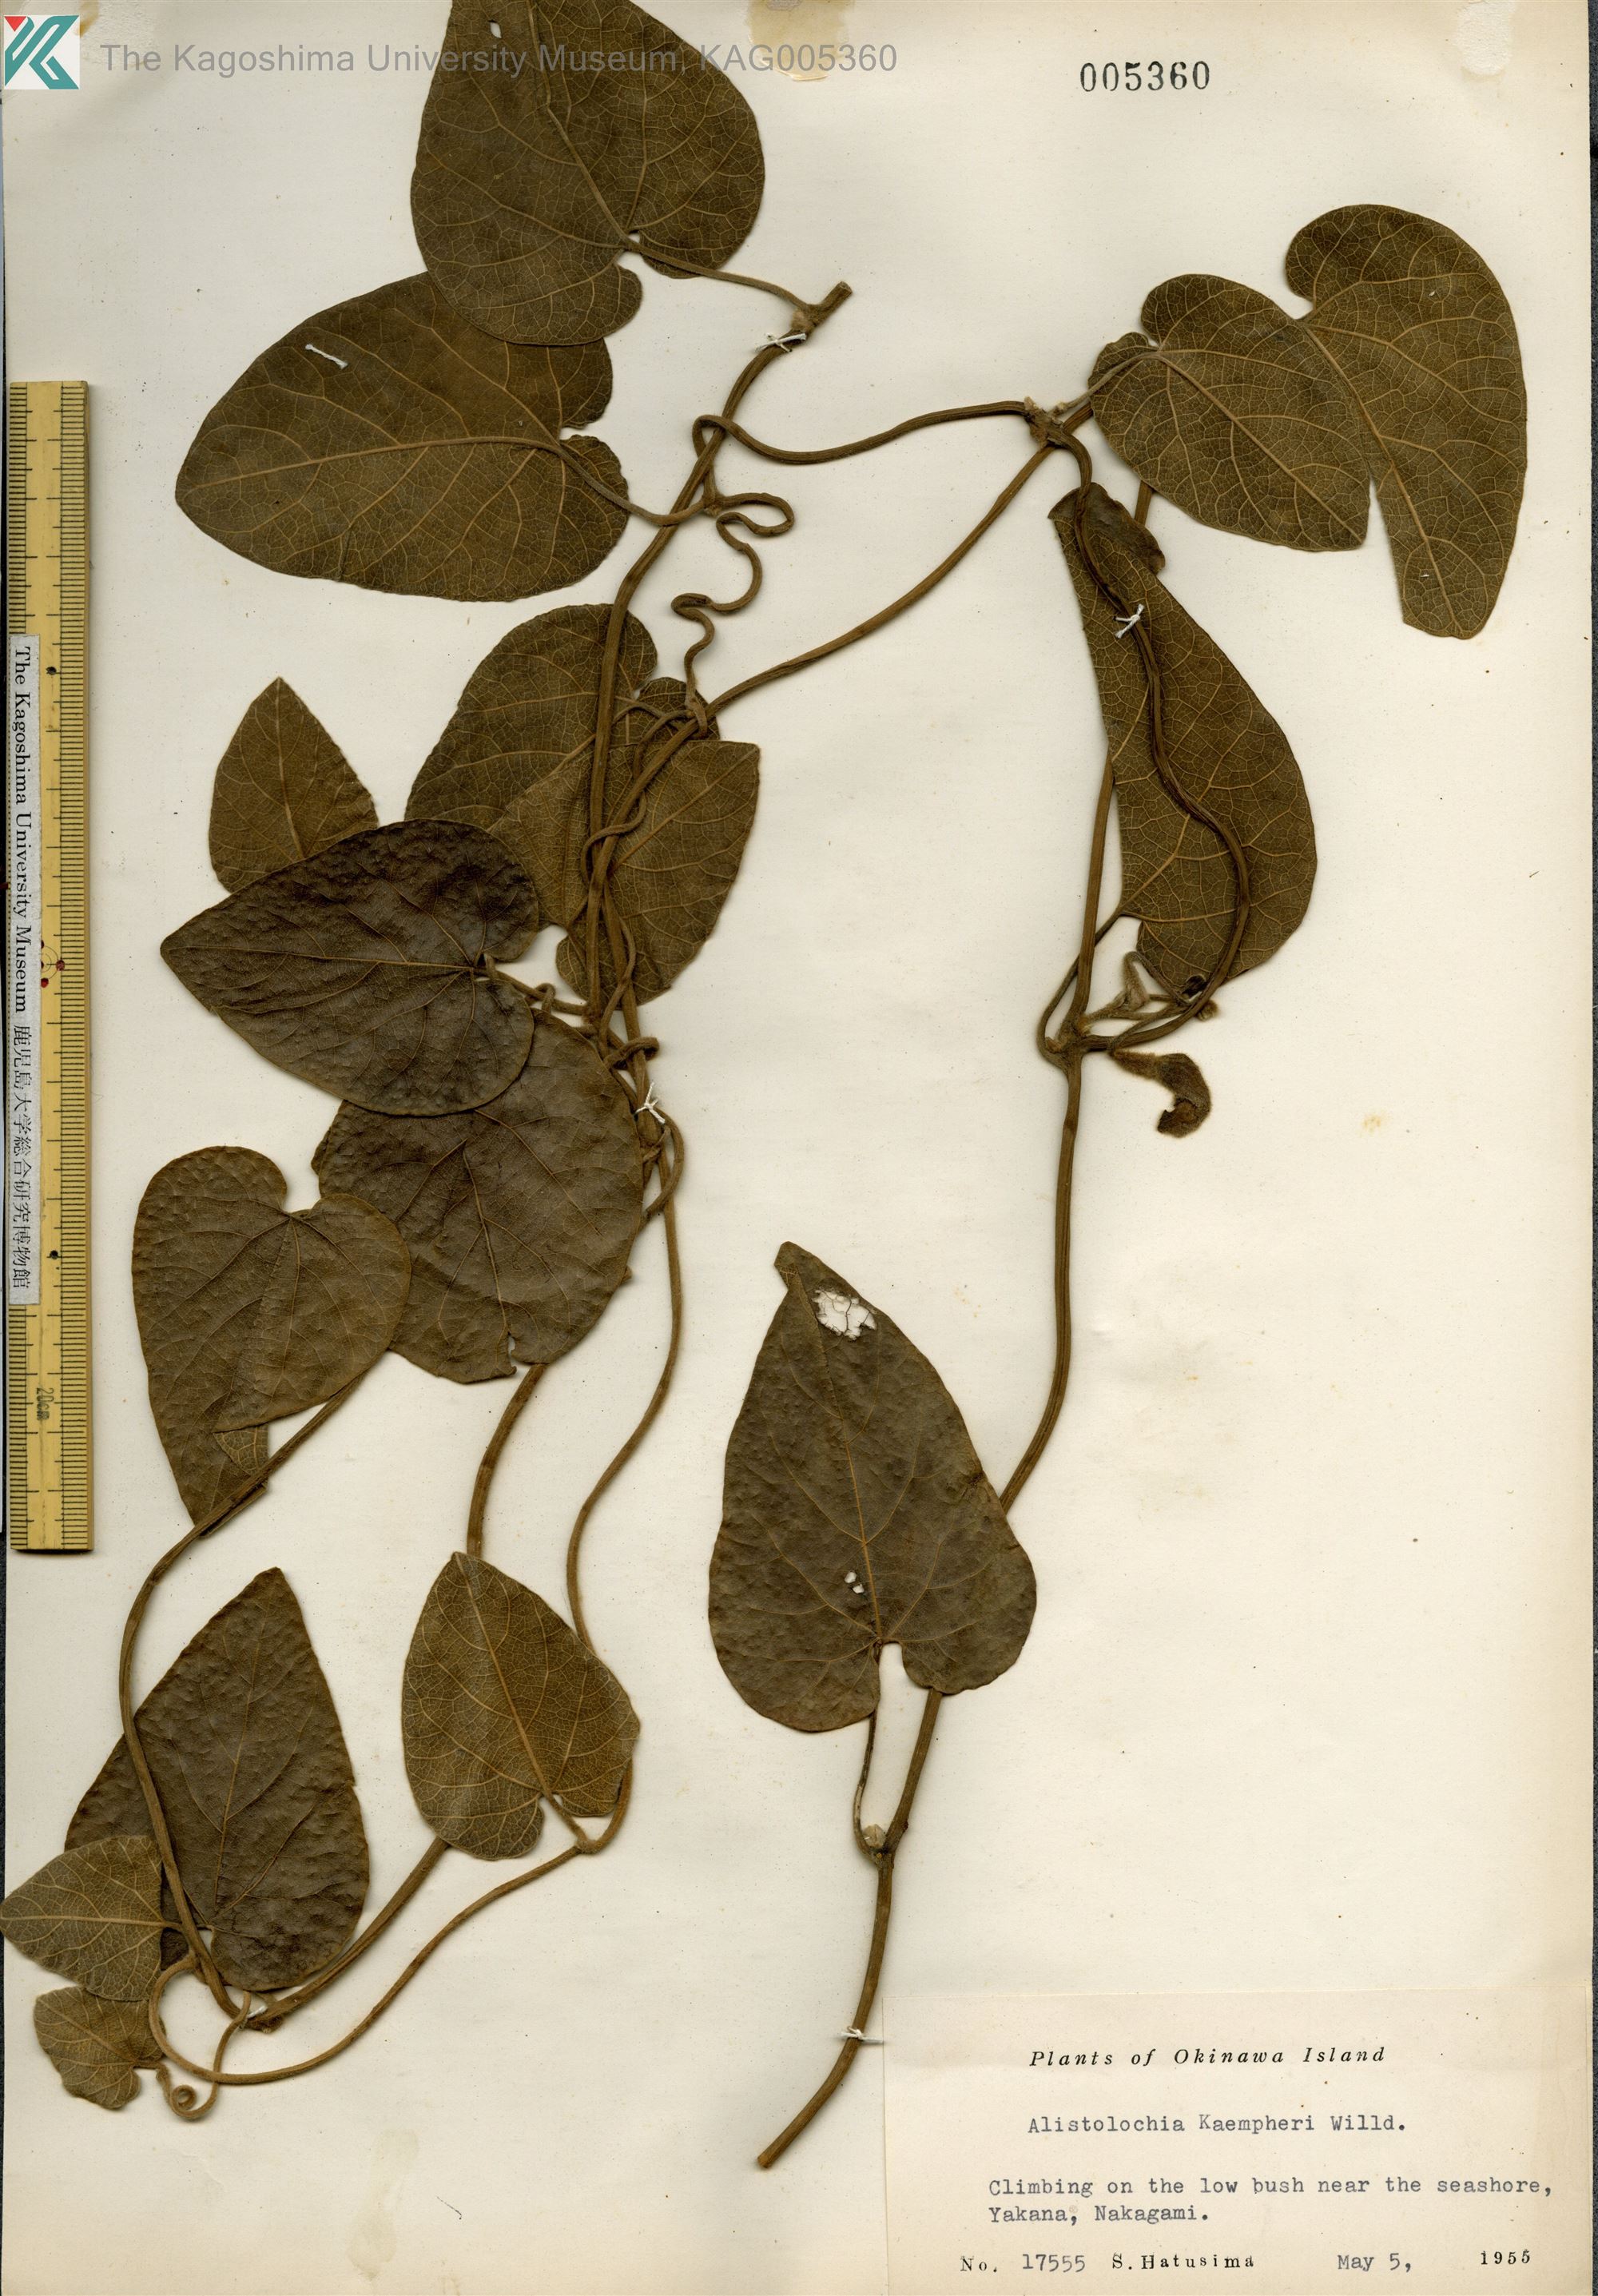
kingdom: Plantae
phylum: Tracheophyta
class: Magnoliopsida
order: Piperales
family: Aristolochiaceae
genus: Isotrema
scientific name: Isotrema liukiuense
